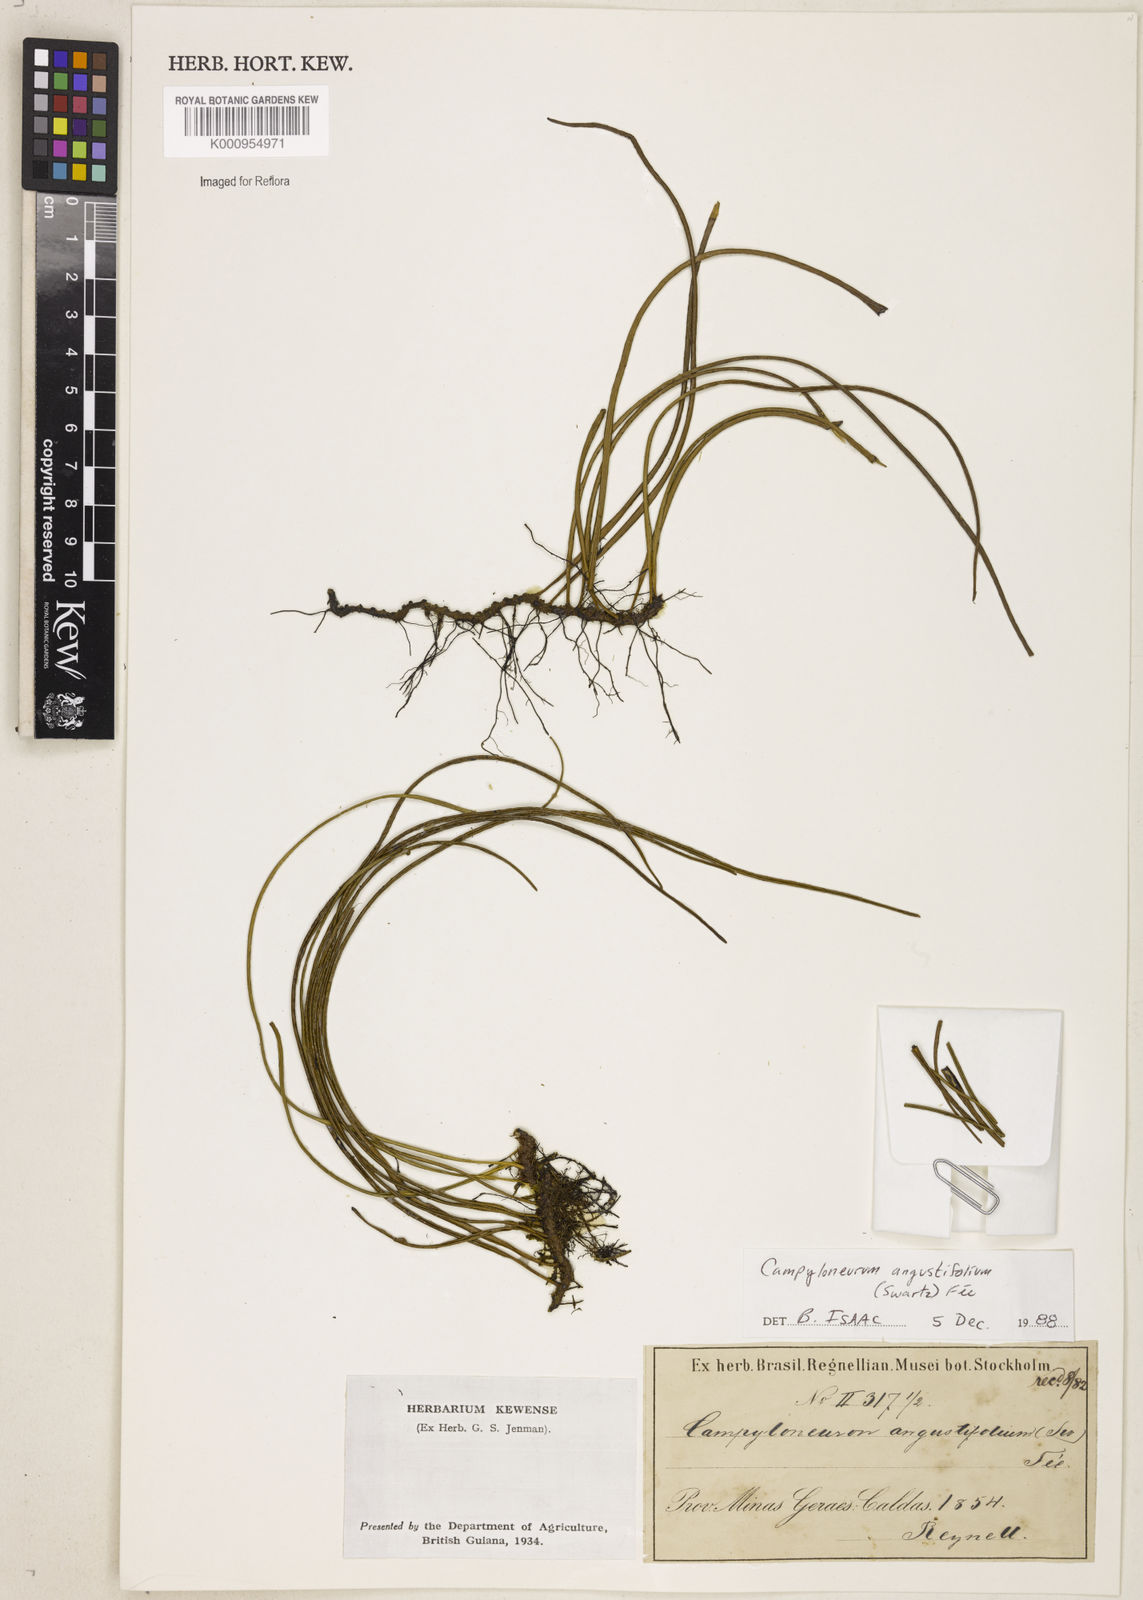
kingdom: Plantae
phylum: Tracheophyta
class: Polypodiopsida
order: Polypodiales
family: Polypodiaceae
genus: Campyloneurum
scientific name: Campyloneurum
